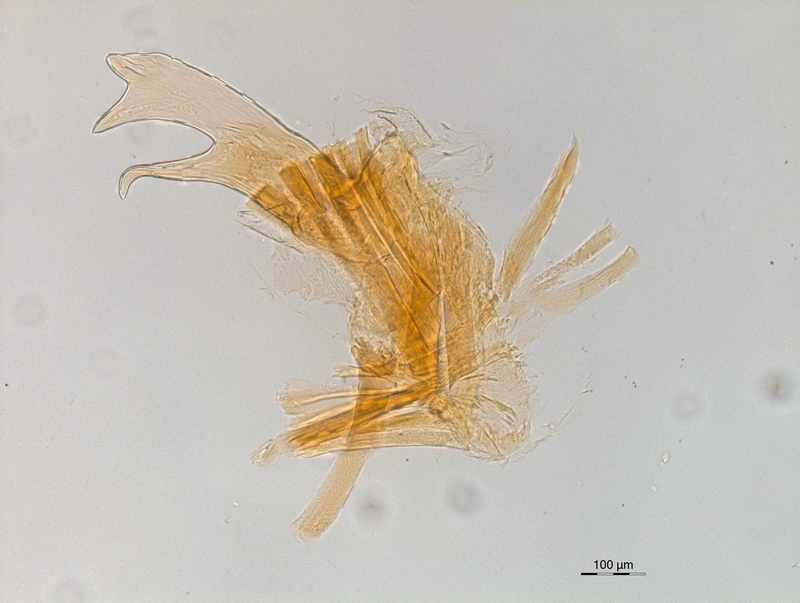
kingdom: Animalia
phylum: Arthropoda
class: Diplopoda
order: Chordeumatida
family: Craspedosomatidae
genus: Atractosoma
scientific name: Atractosoma meridionale
